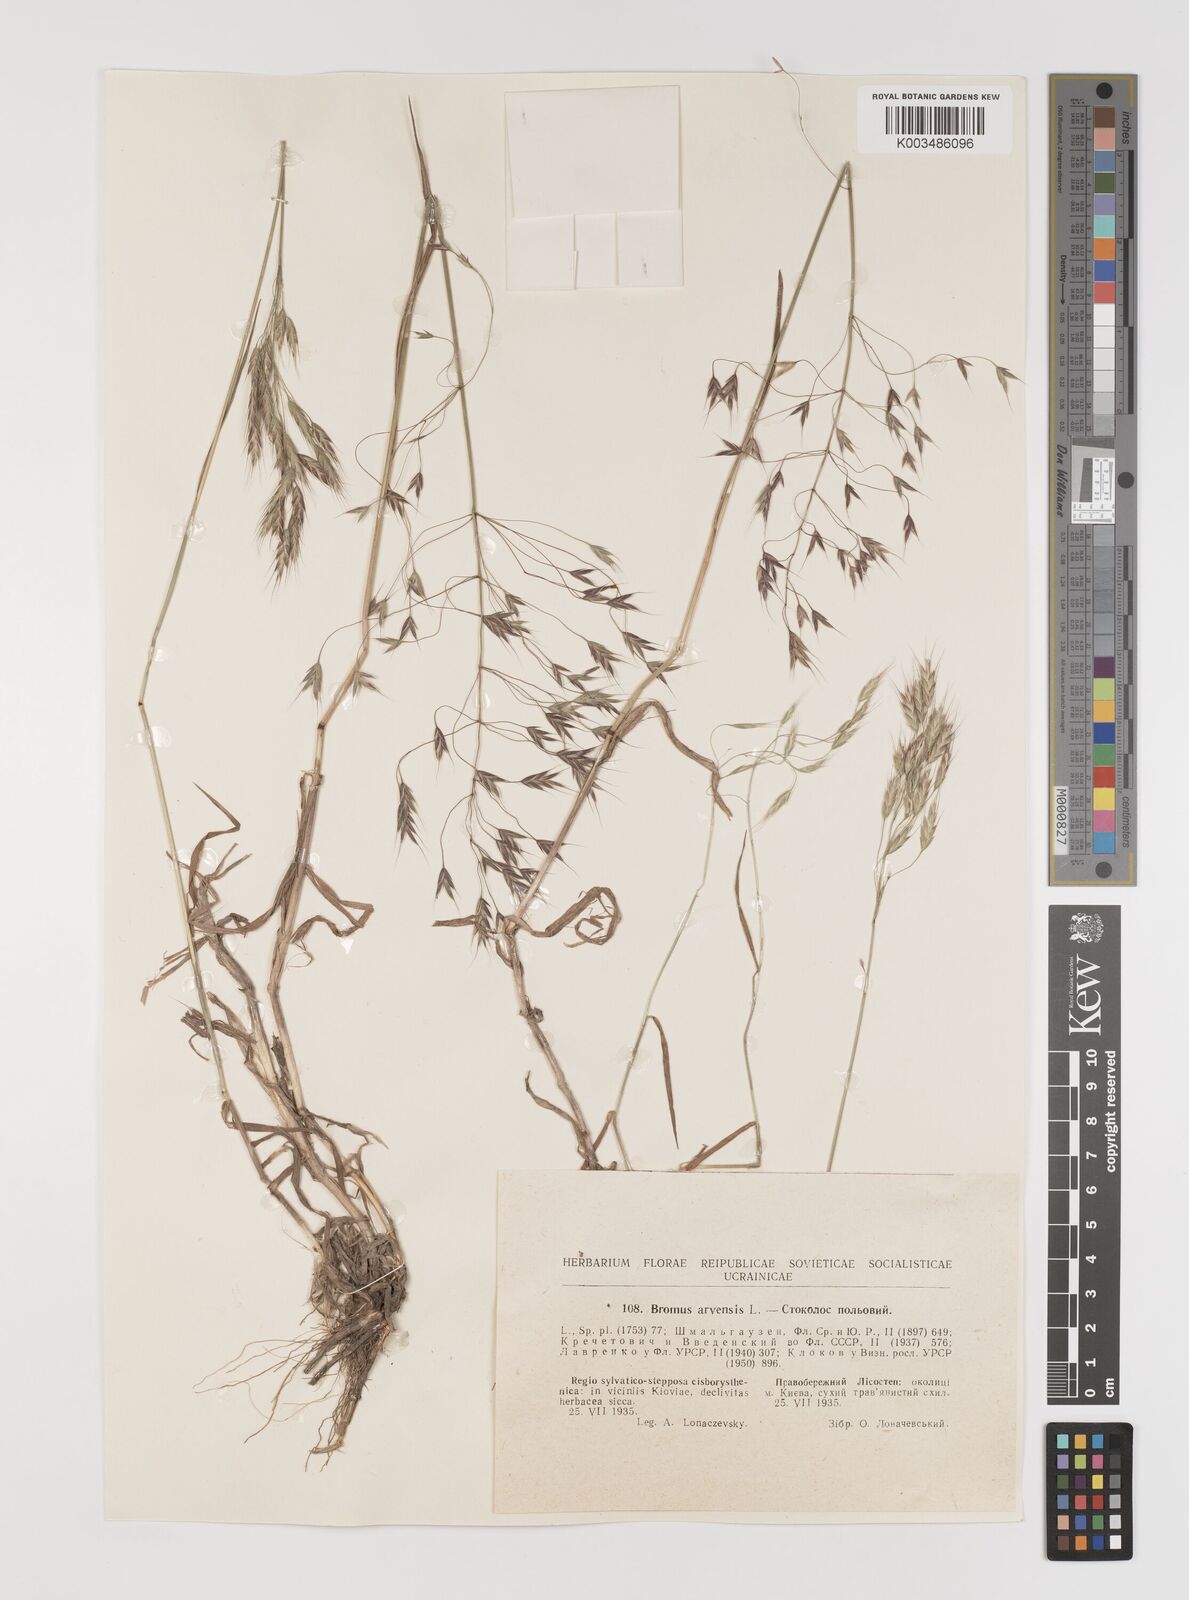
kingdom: Plantae
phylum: Tracheophyta
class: Liliopsida
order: Poales
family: Poaceae
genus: Bromus
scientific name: Bromus arvensis
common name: Field brome
